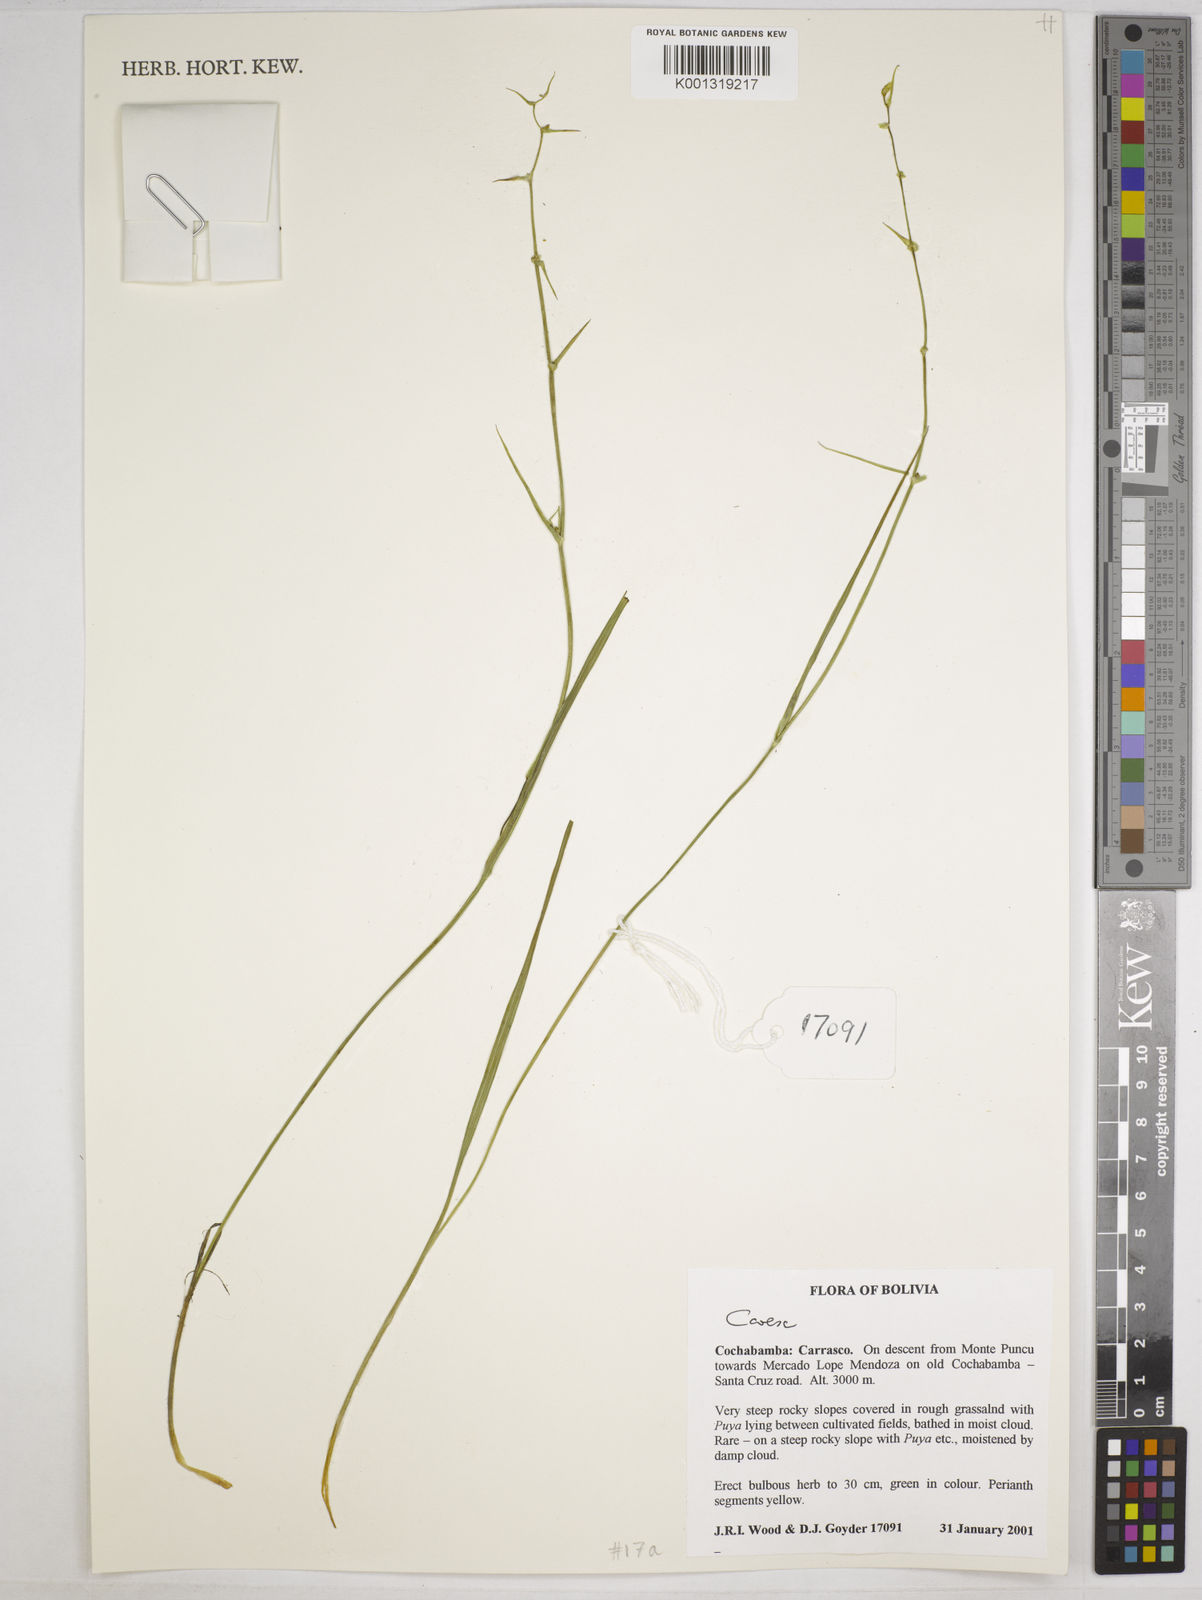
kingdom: Plantae
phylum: Tracheophyta
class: Liliopsida
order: Poales
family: Cyperaceae
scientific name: Cyperaceae
